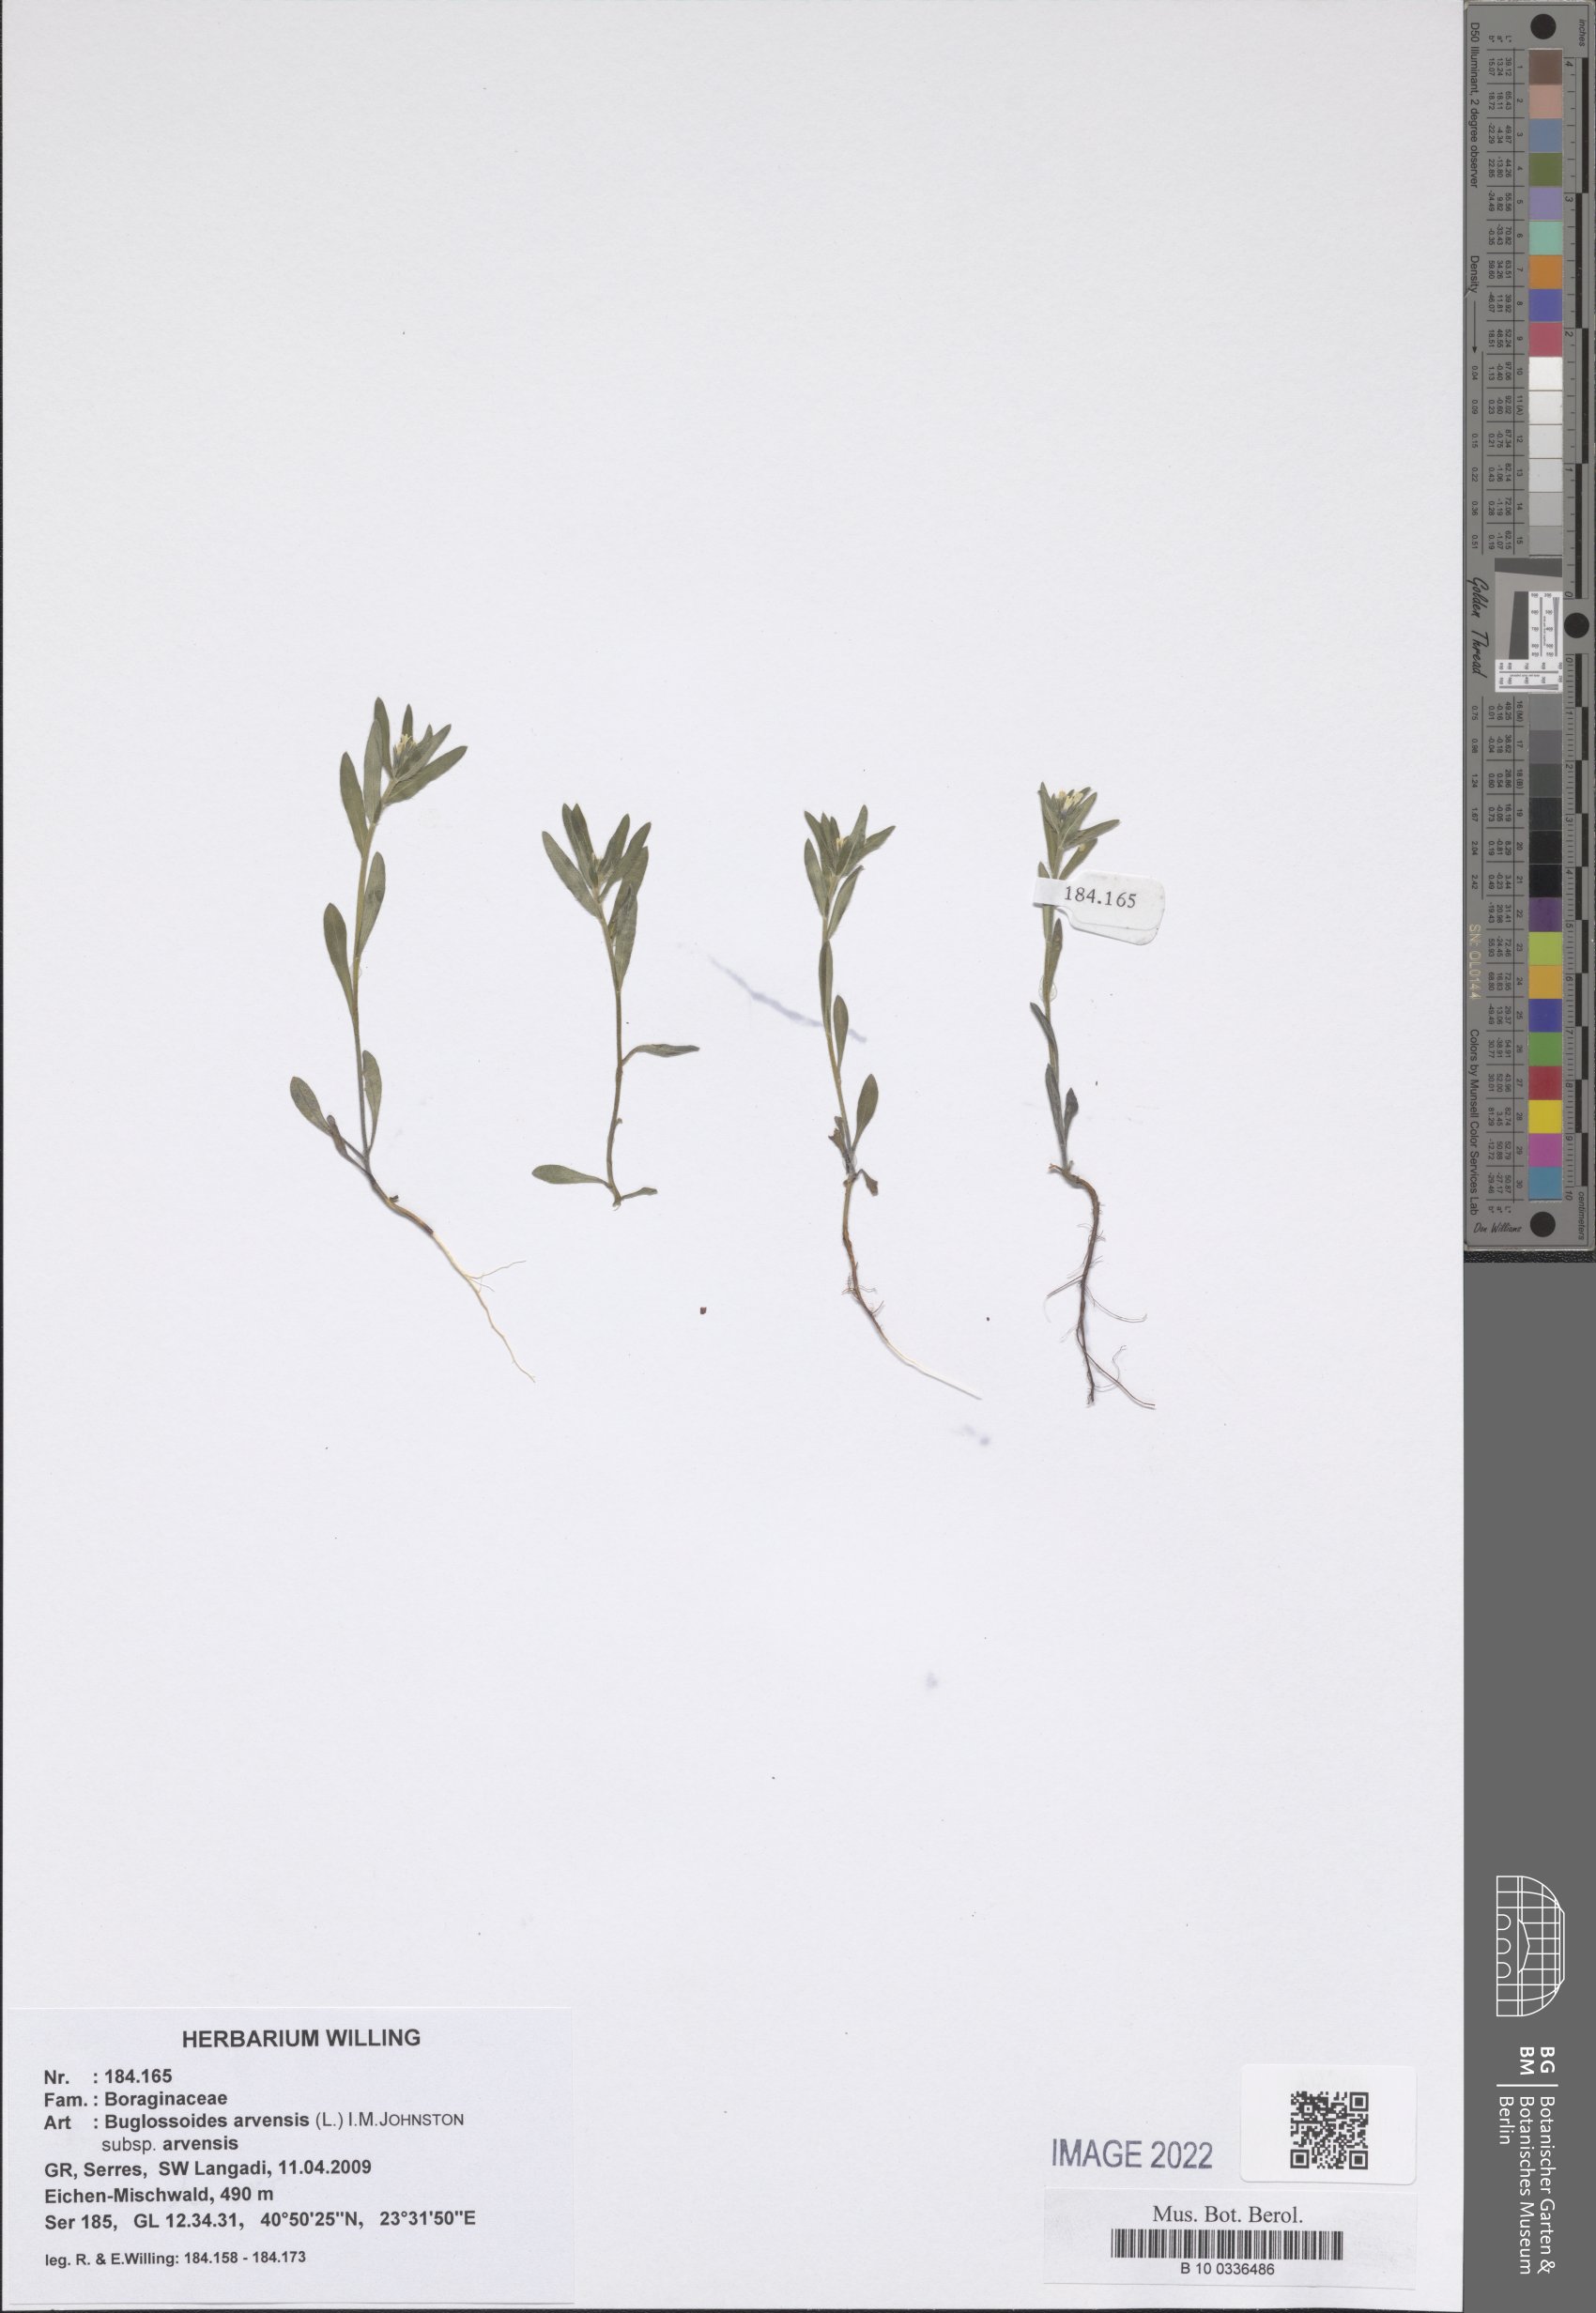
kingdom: Plantae
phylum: Tracheophyta
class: Magnoliopsida
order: Boraginales
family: Boraginaceae
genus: Buglossoides
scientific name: Buglossoides arvensis
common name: Corn gromwell
